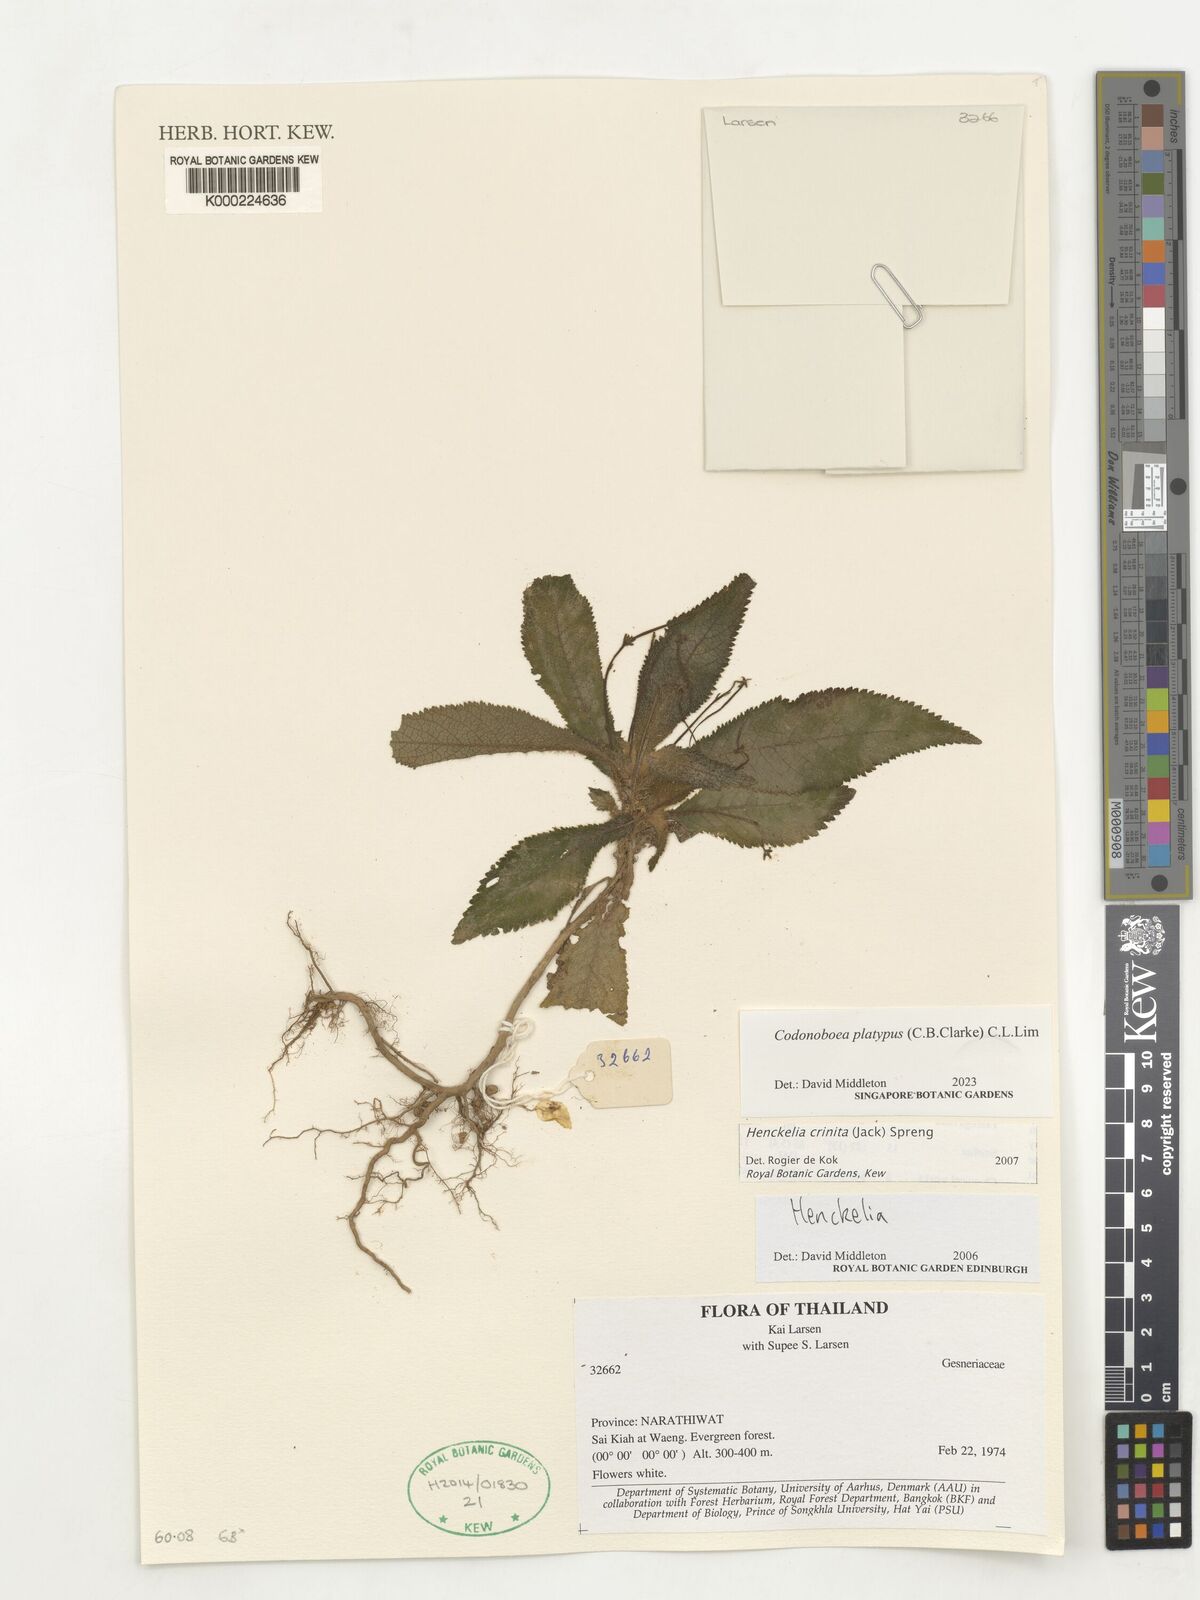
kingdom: Plantae
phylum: Tracheophyta
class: Magnoliopsida
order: Lamiales
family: Gesneriaceae
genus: Codonoboea
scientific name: Codonoboea platypus
